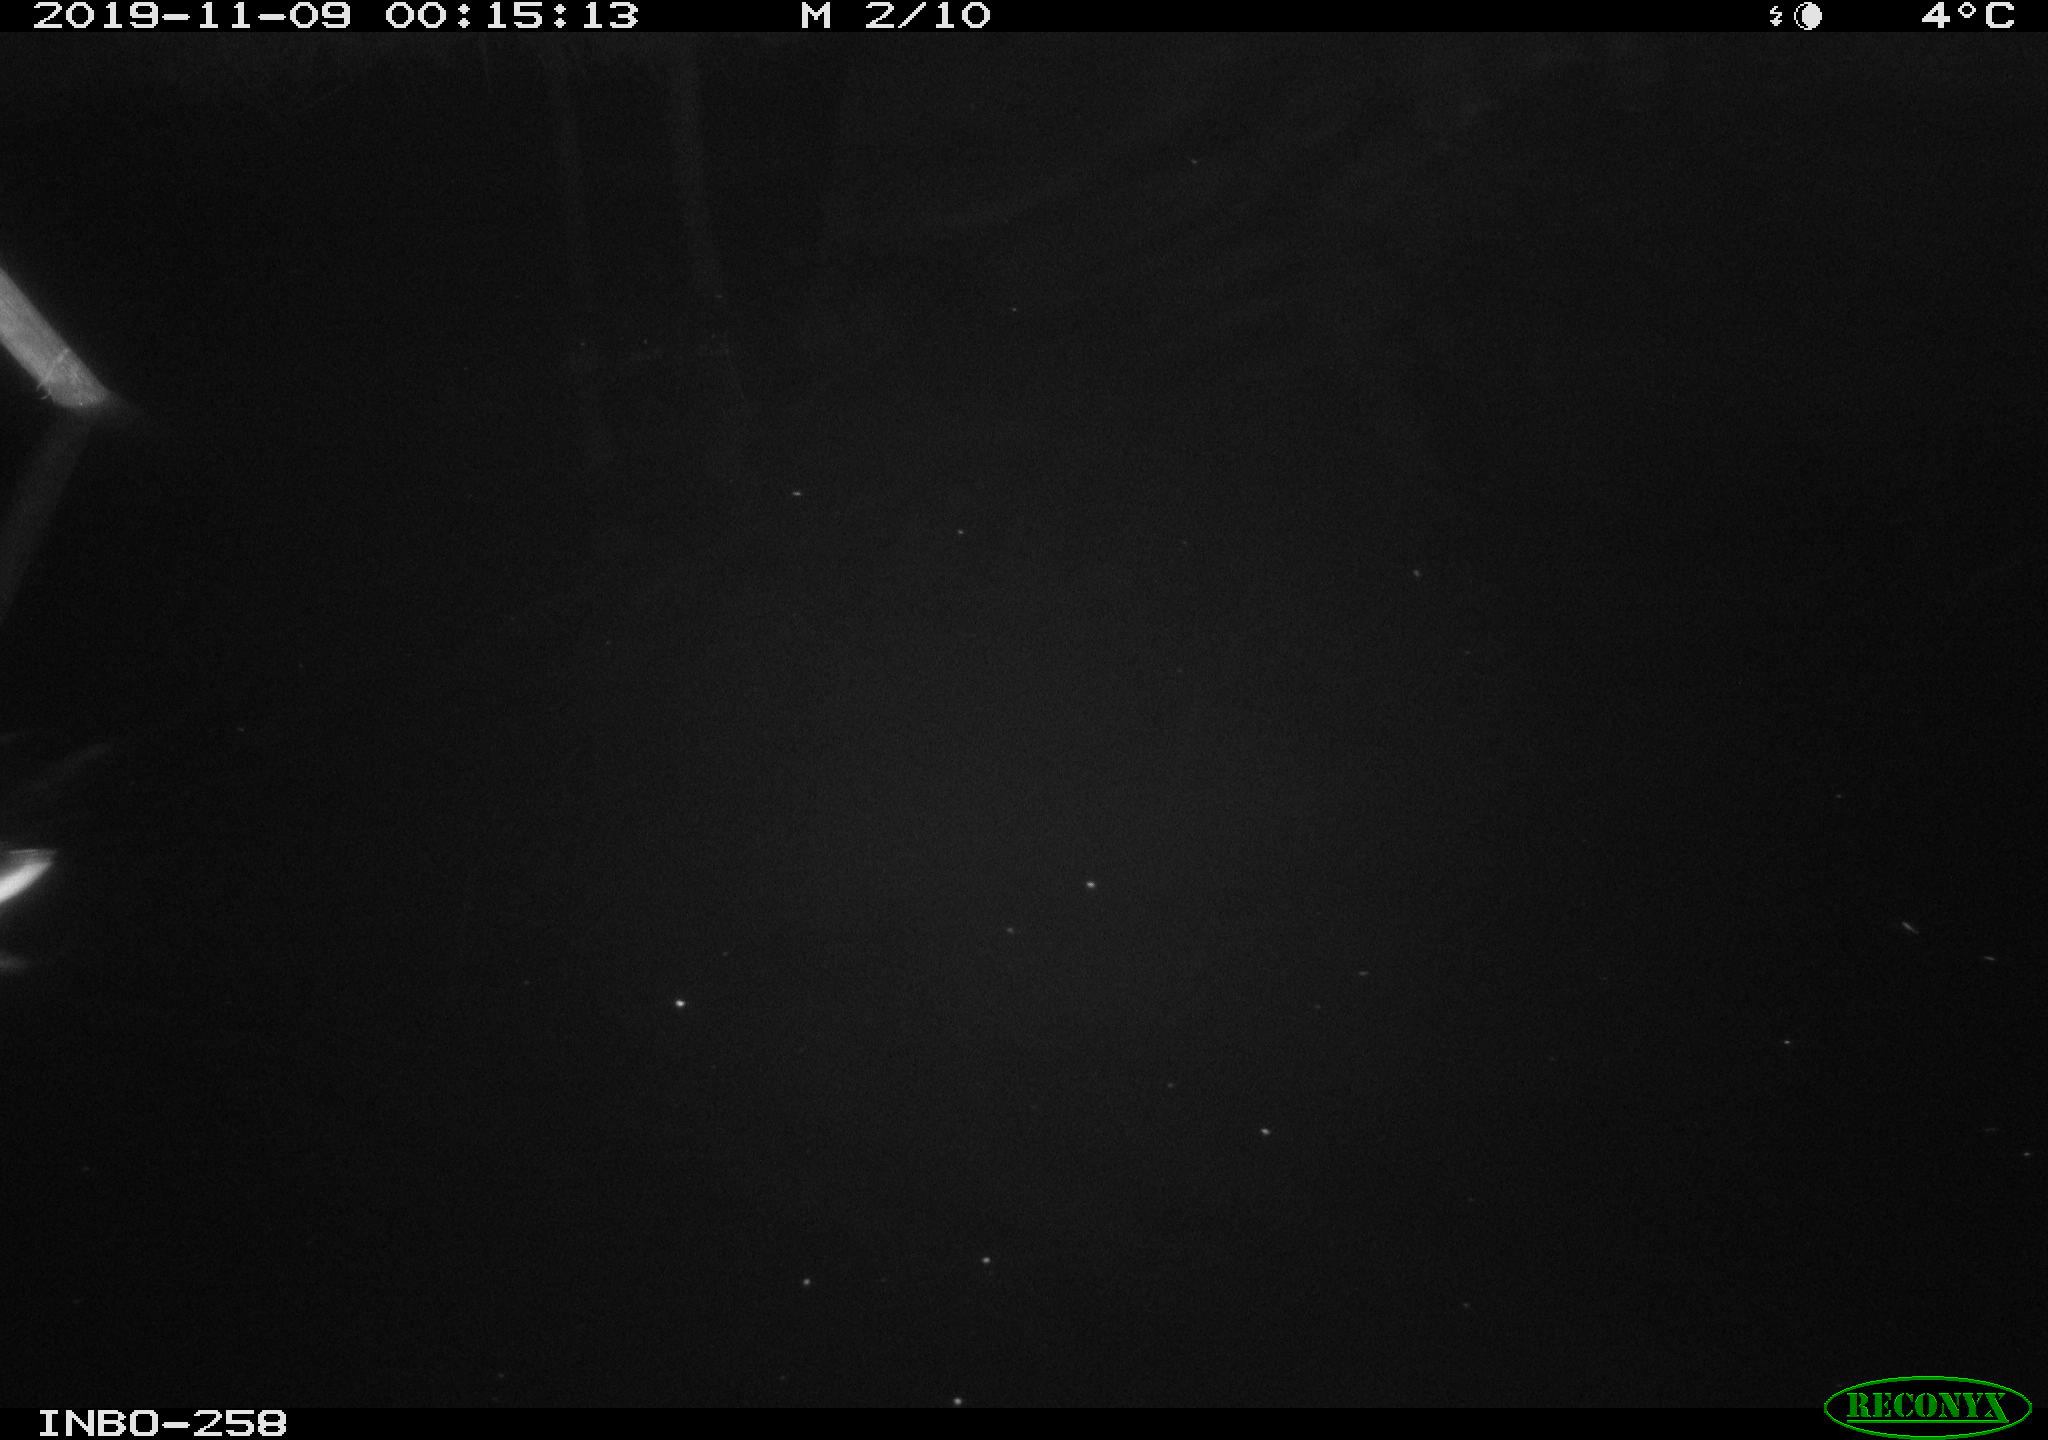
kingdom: Animalia
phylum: Chordata
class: Aves
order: Anseriformes
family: Anatidae
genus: Anas
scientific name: Anas platyrhynchos
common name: Mallard
